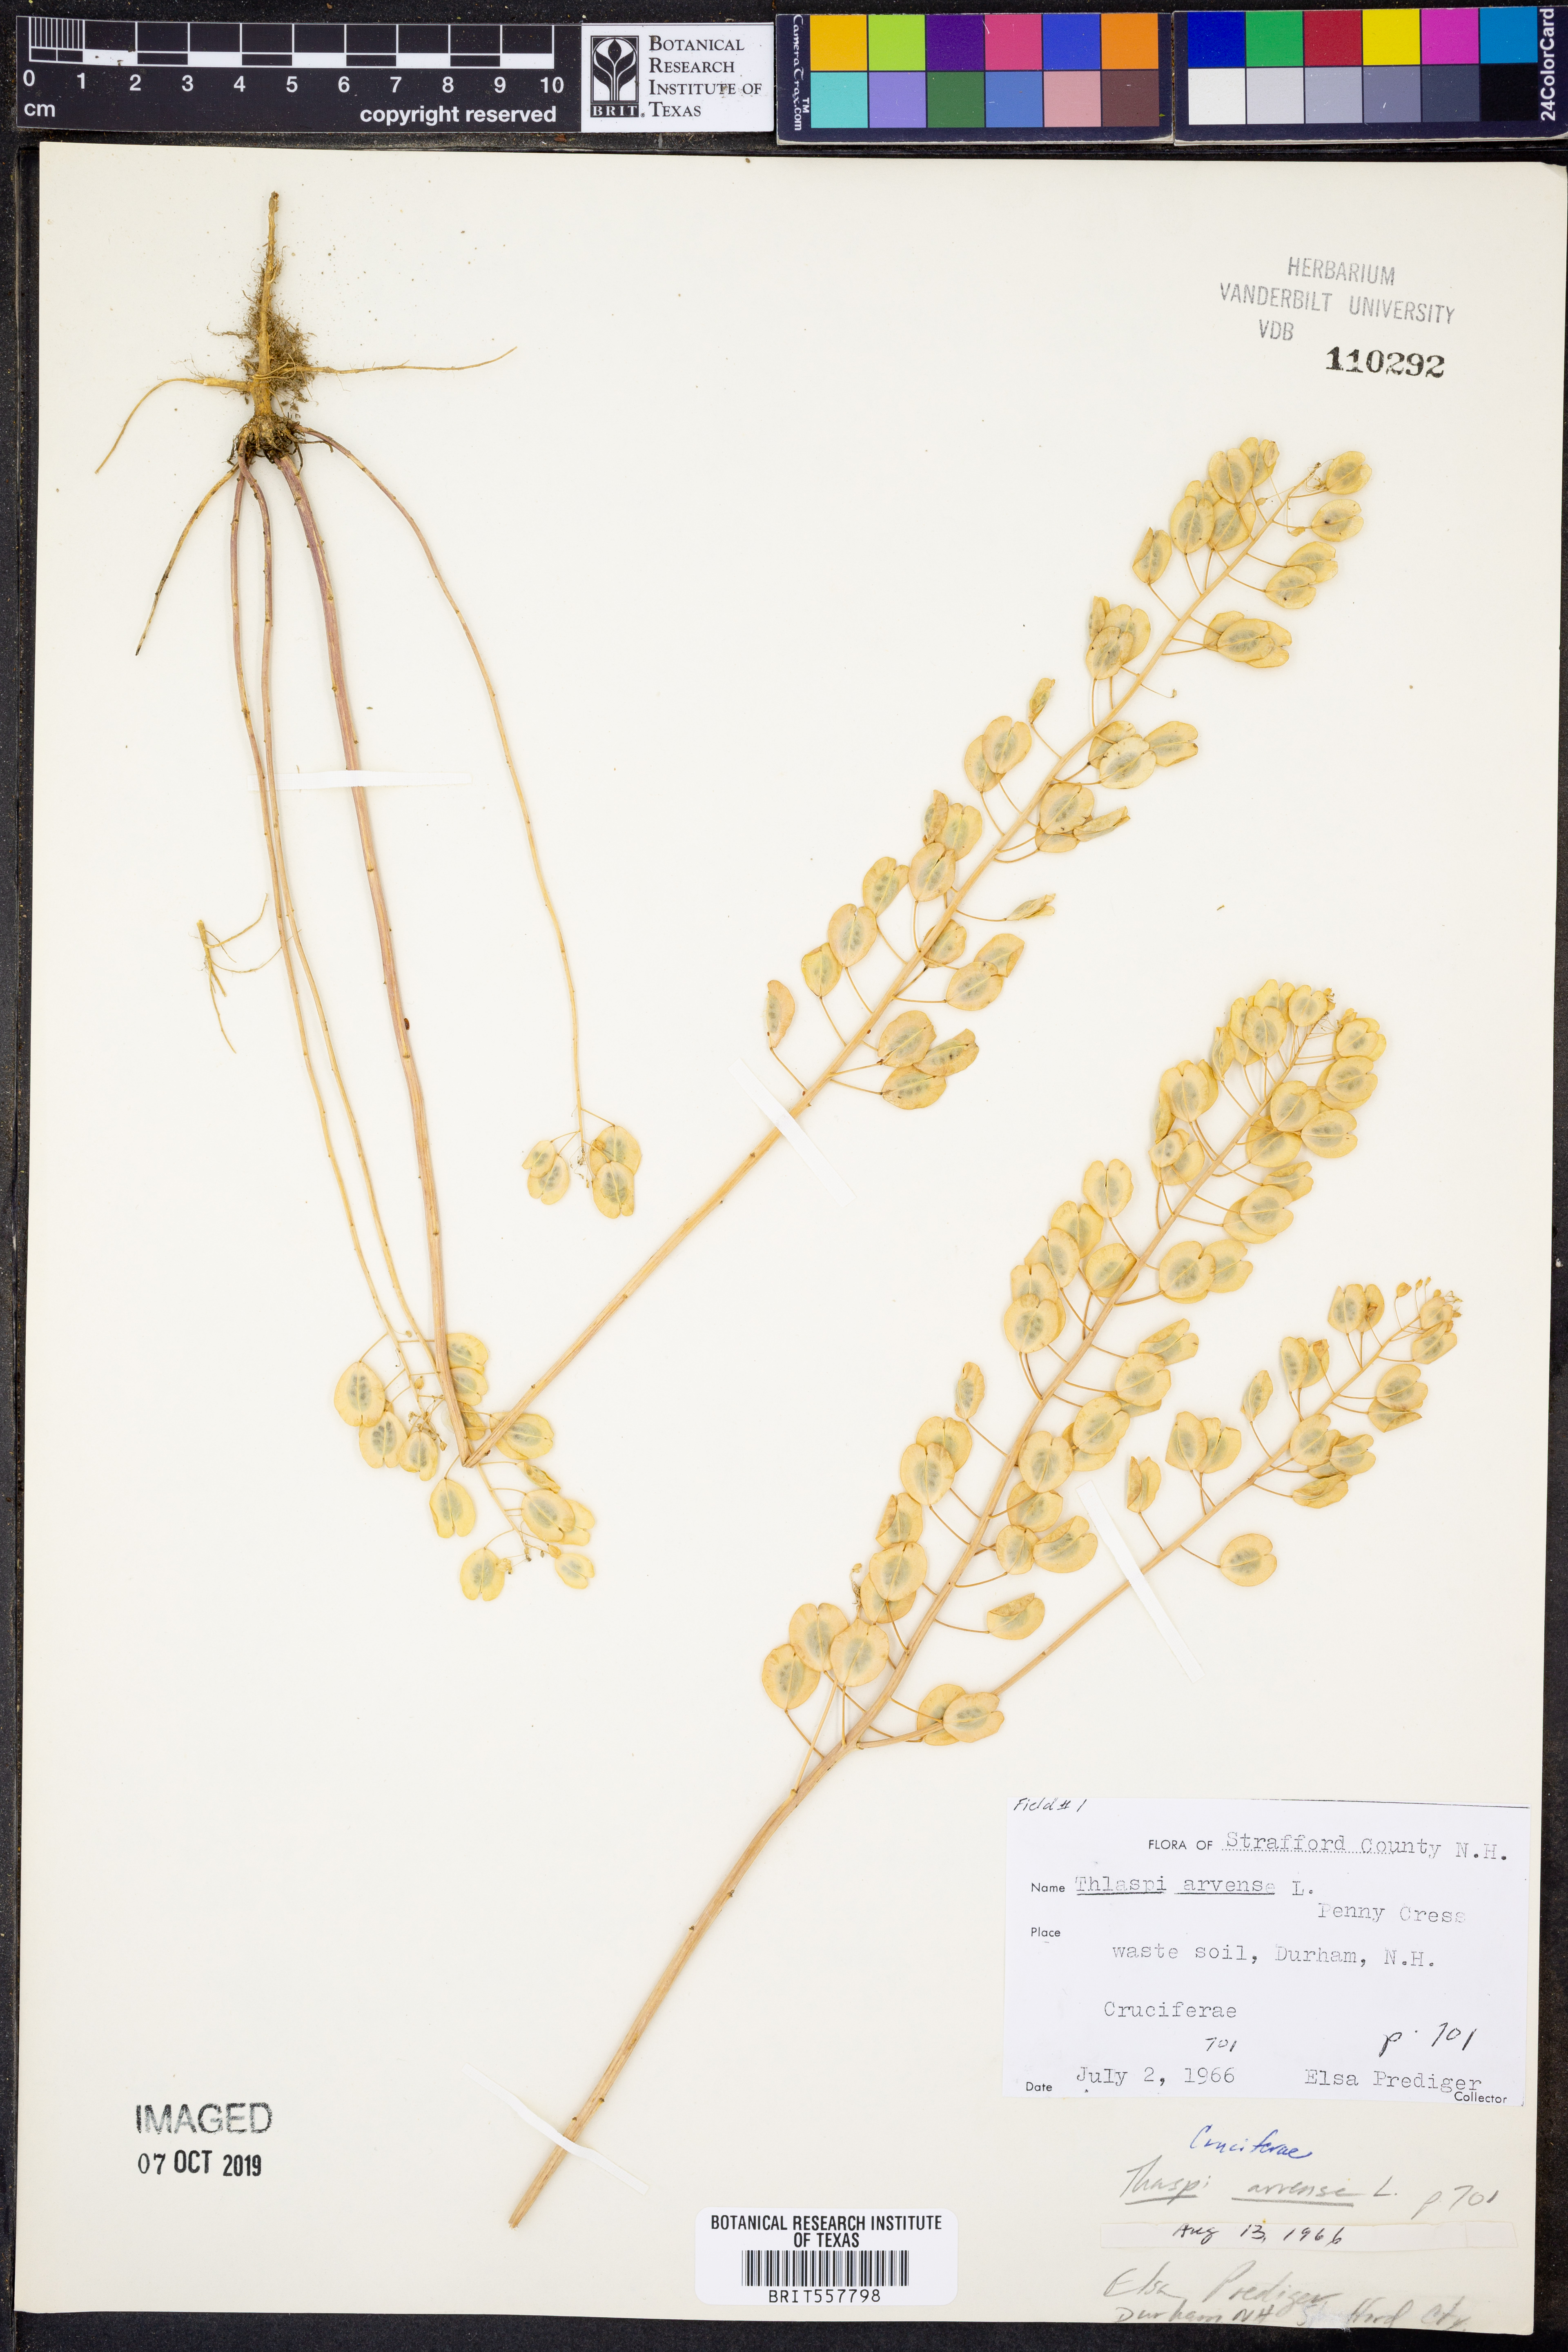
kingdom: Plantae
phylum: Tracheophyta
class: Magnoliopsida
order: Brassicales
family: Brassicaceae
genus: Thlaspi
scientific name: Thlaspi arvense
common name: Field pennycress
